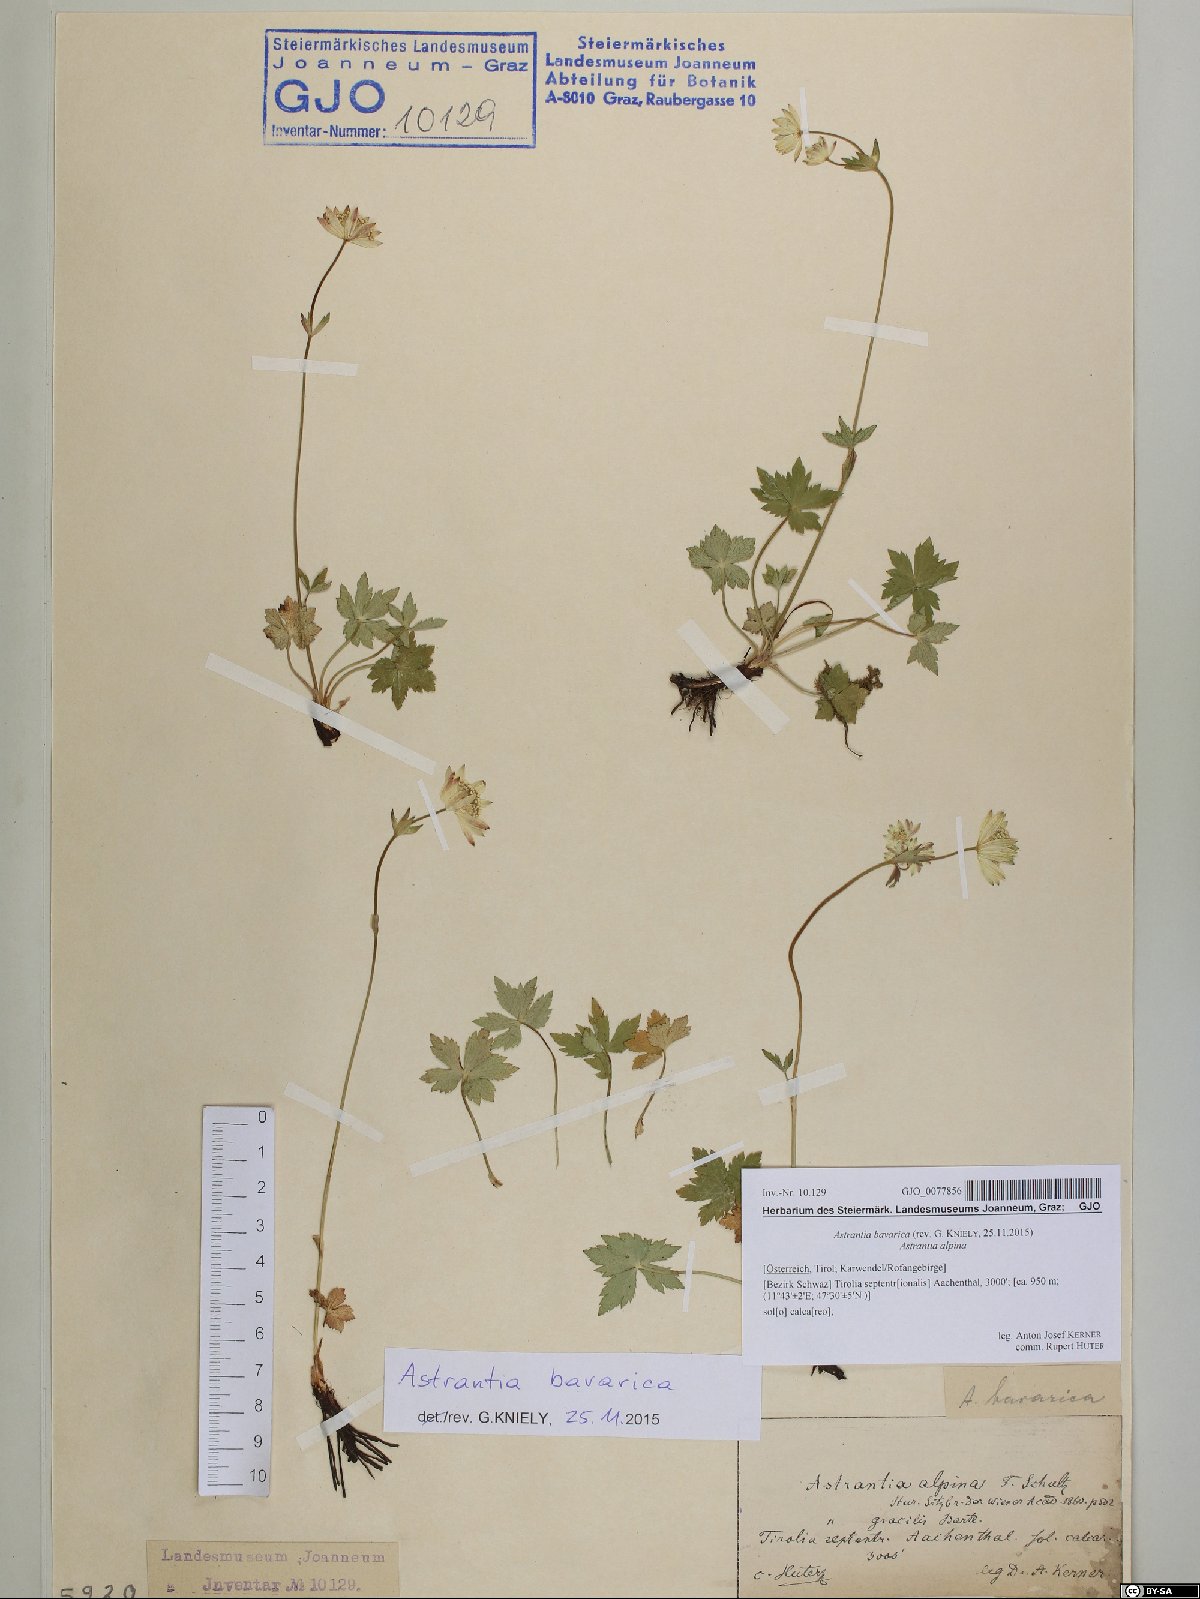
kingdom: Plantae
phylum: Tracheophyta
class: Magnoliopsida
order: Apiales
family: Apiaceae
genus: Astrantia
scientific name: Astrantia bavarica
